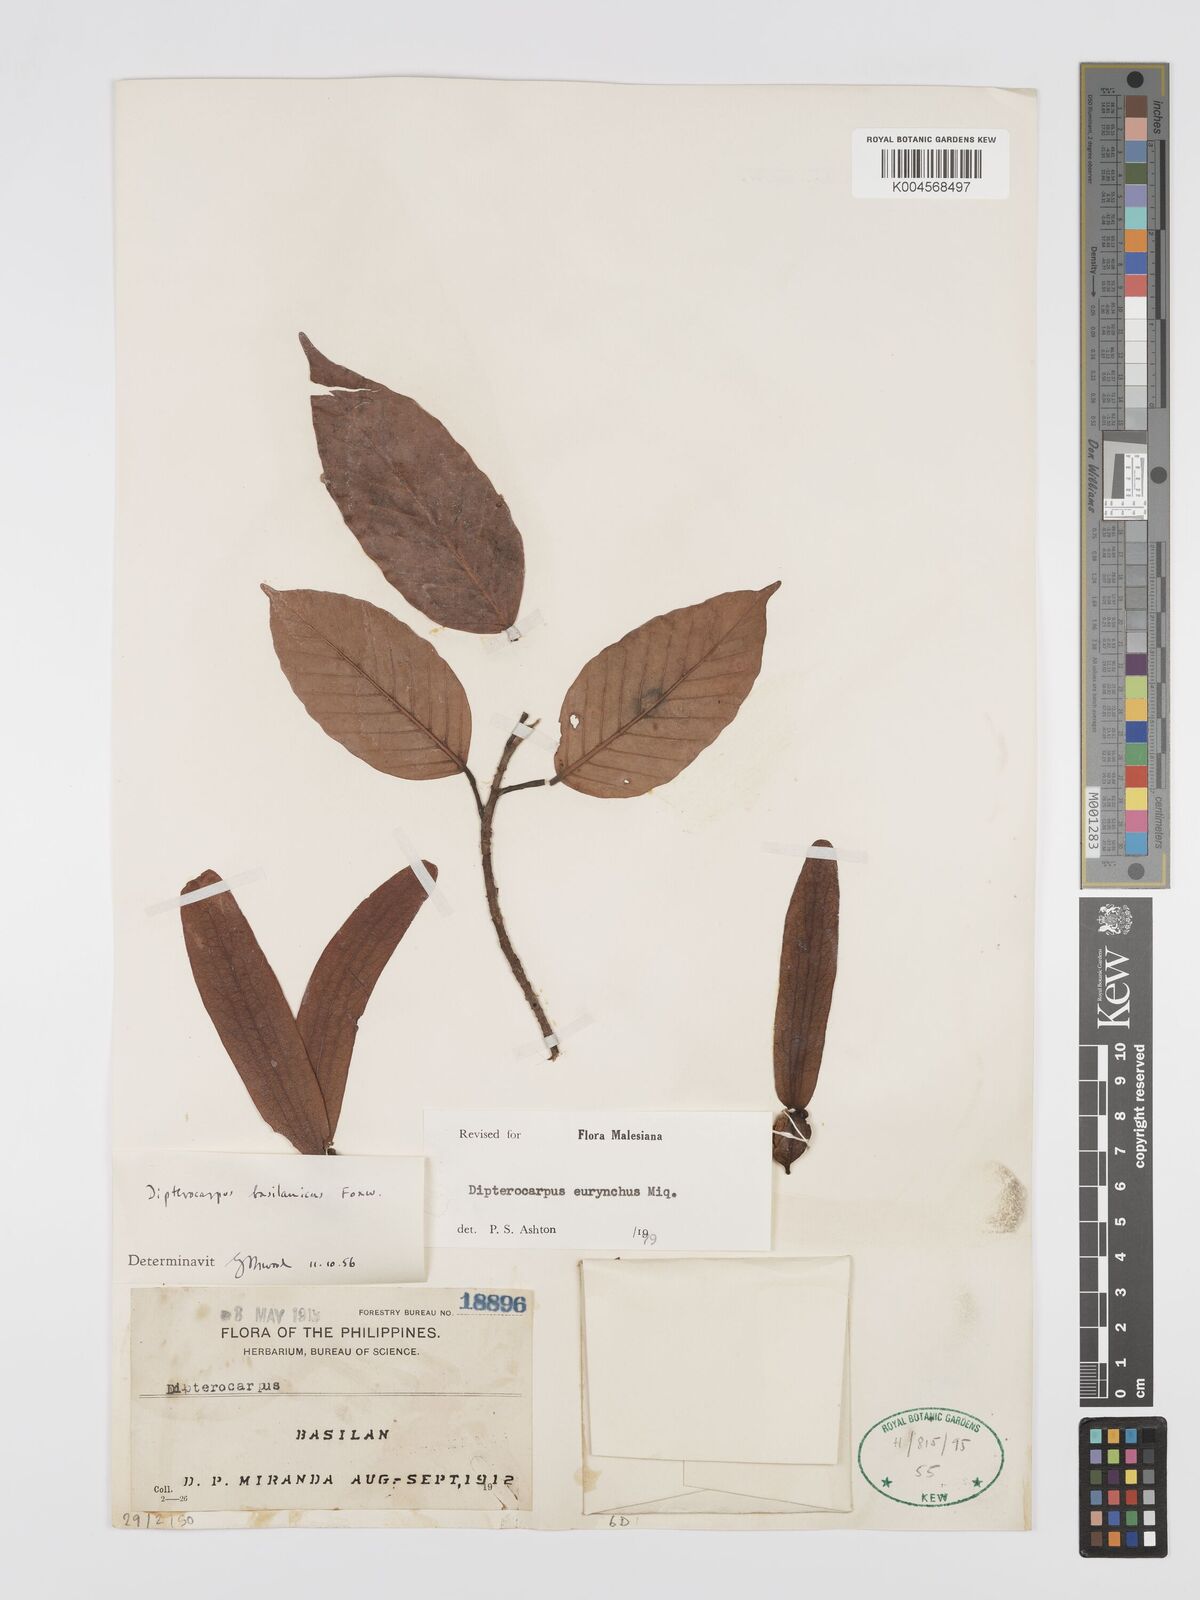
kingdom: Plantae
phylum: Tracheophyta
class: Magnoliopsida
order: Malvales
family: Dipterocarpaceae
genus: Dipterocarpus
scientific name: Dipterocarpus eurhynchus
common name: Keruing
